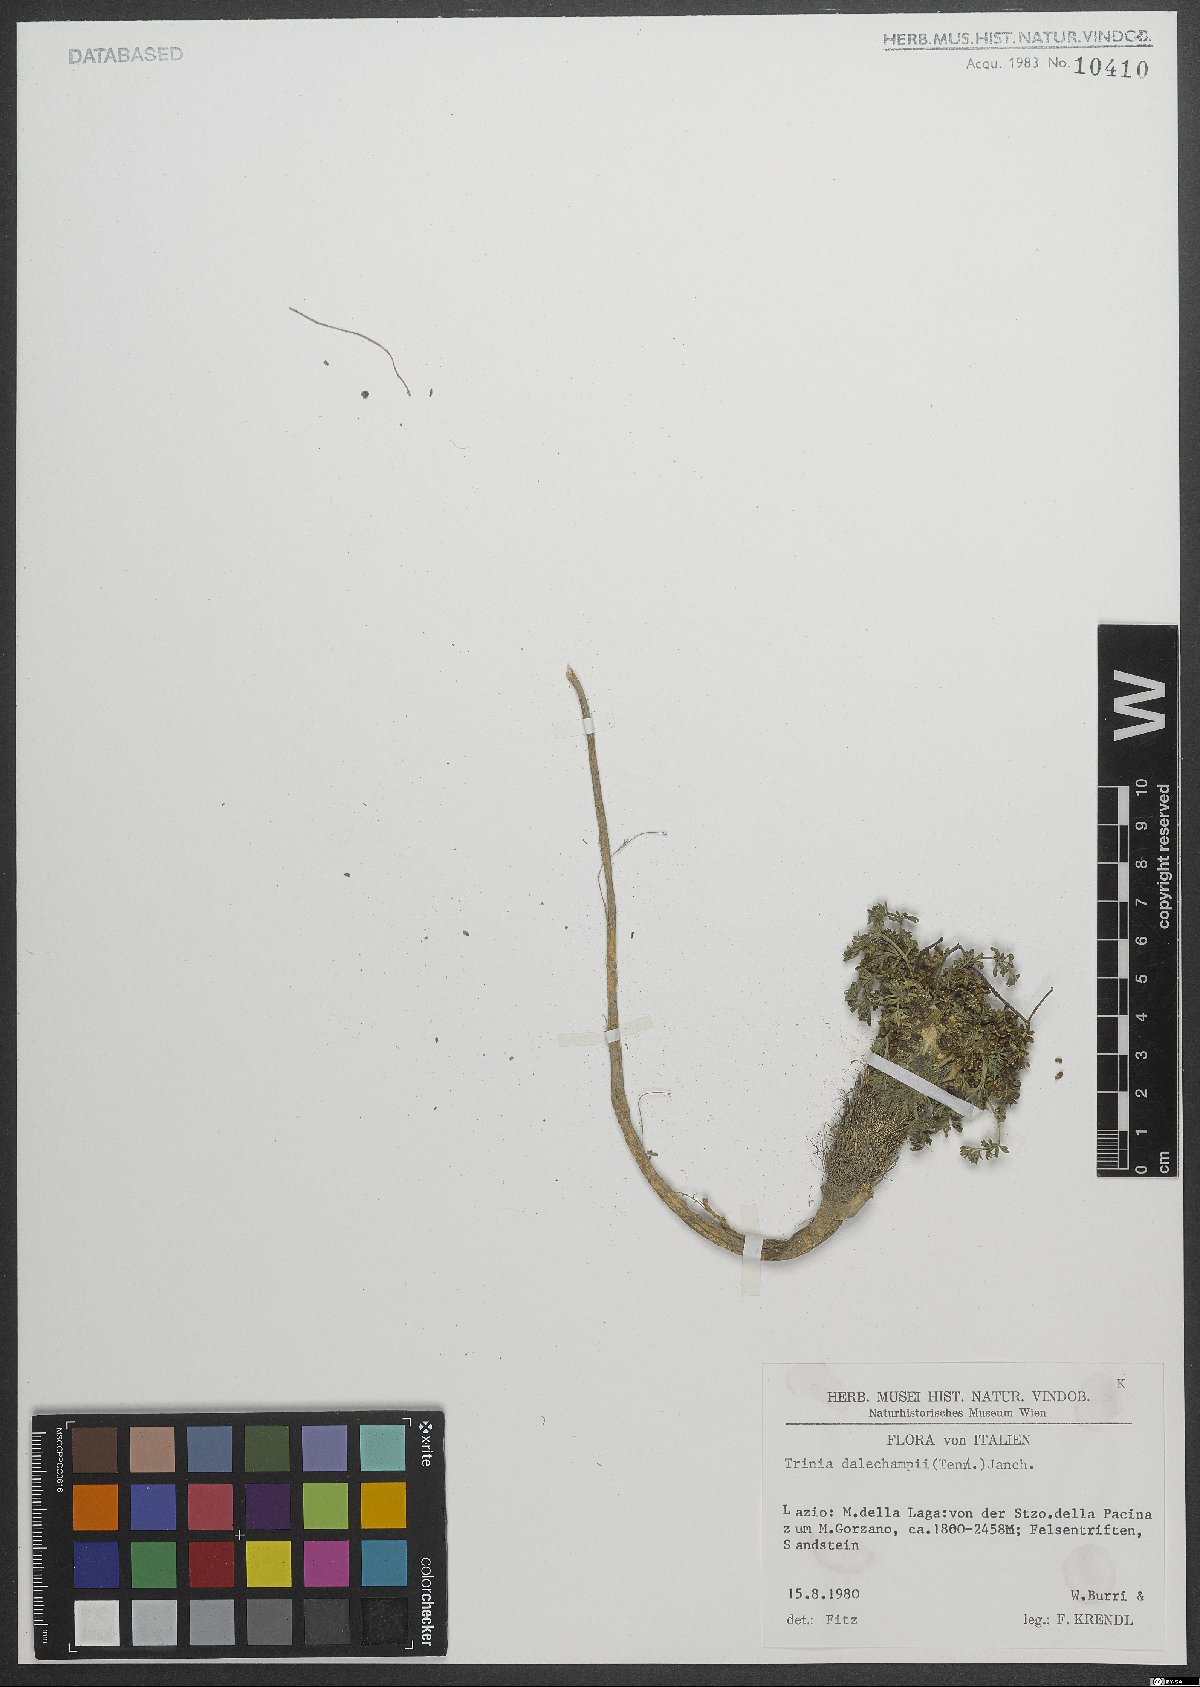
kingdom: Plantae
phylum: Tracheophyta
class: Magnoliopsida
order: Apiales
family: Apiaceae
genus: Trinia
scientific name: Trinia dalechampii
